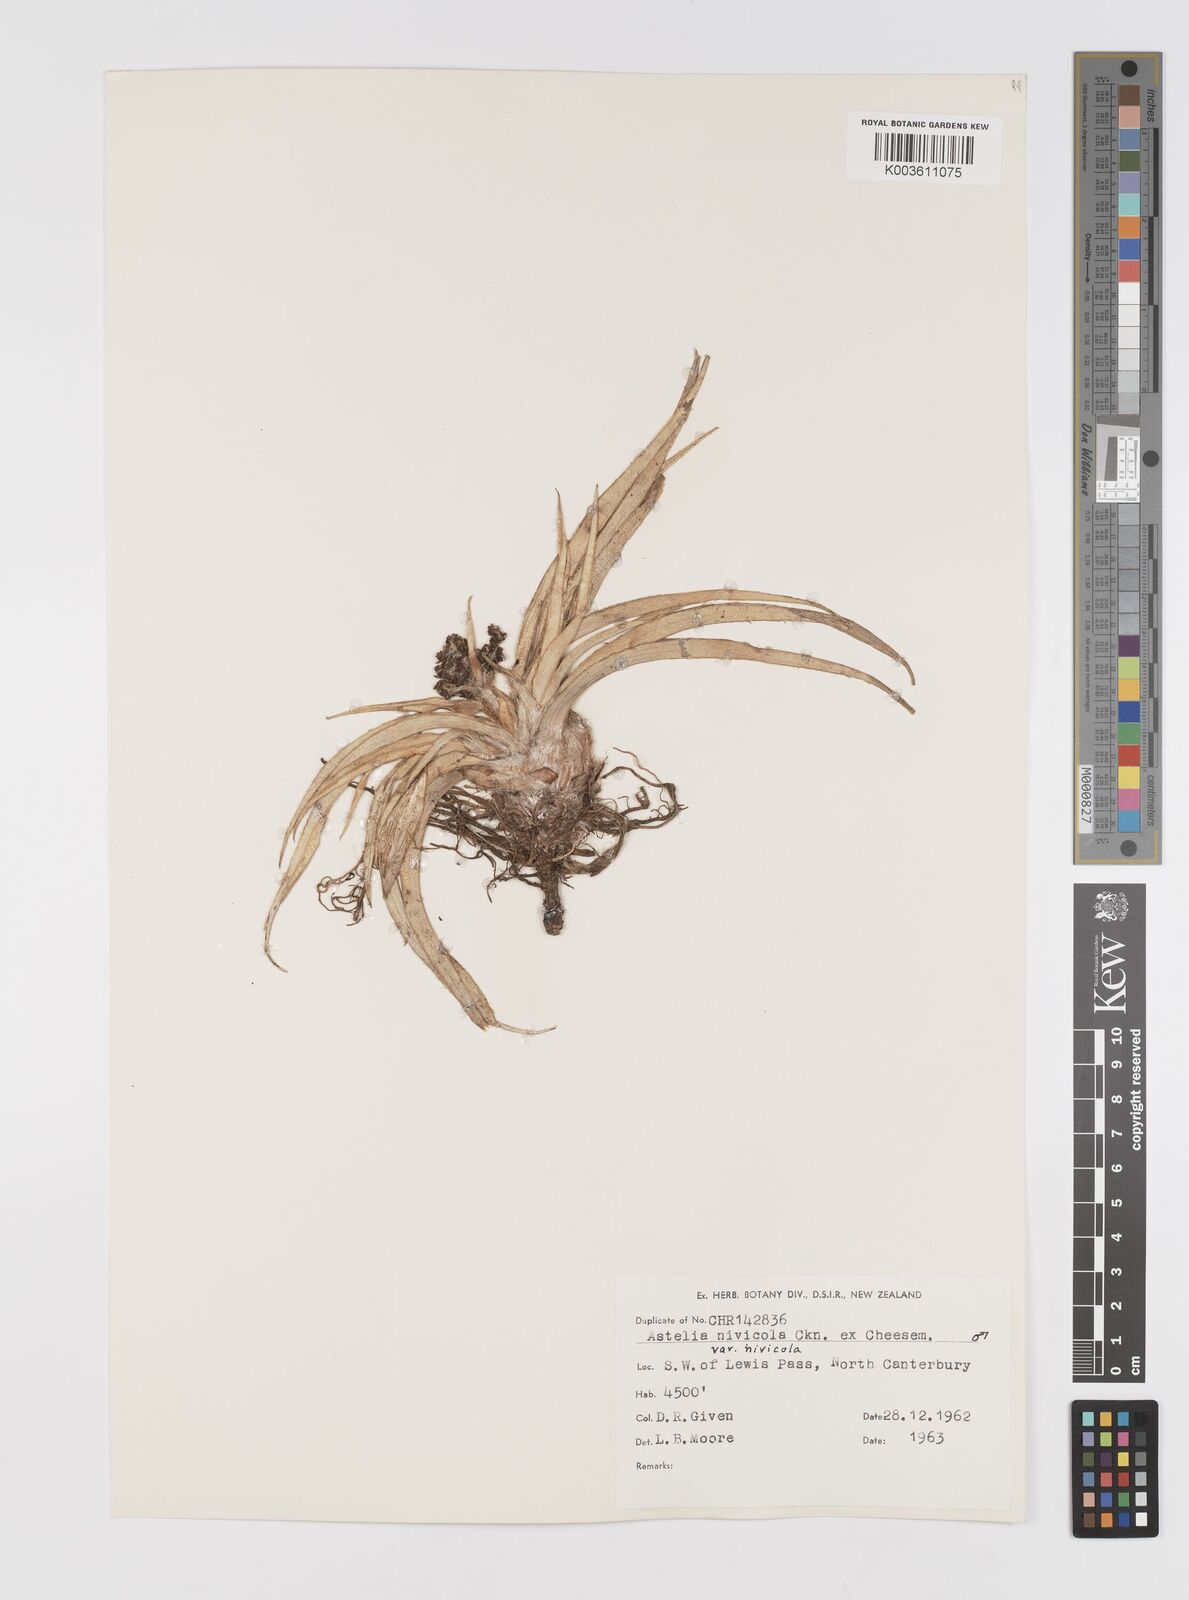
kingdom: Plantae
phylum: Tracheophyta
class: Liliopsida
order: Asparagales
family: Asteliaceae
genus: Astelia
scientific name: Astelia
